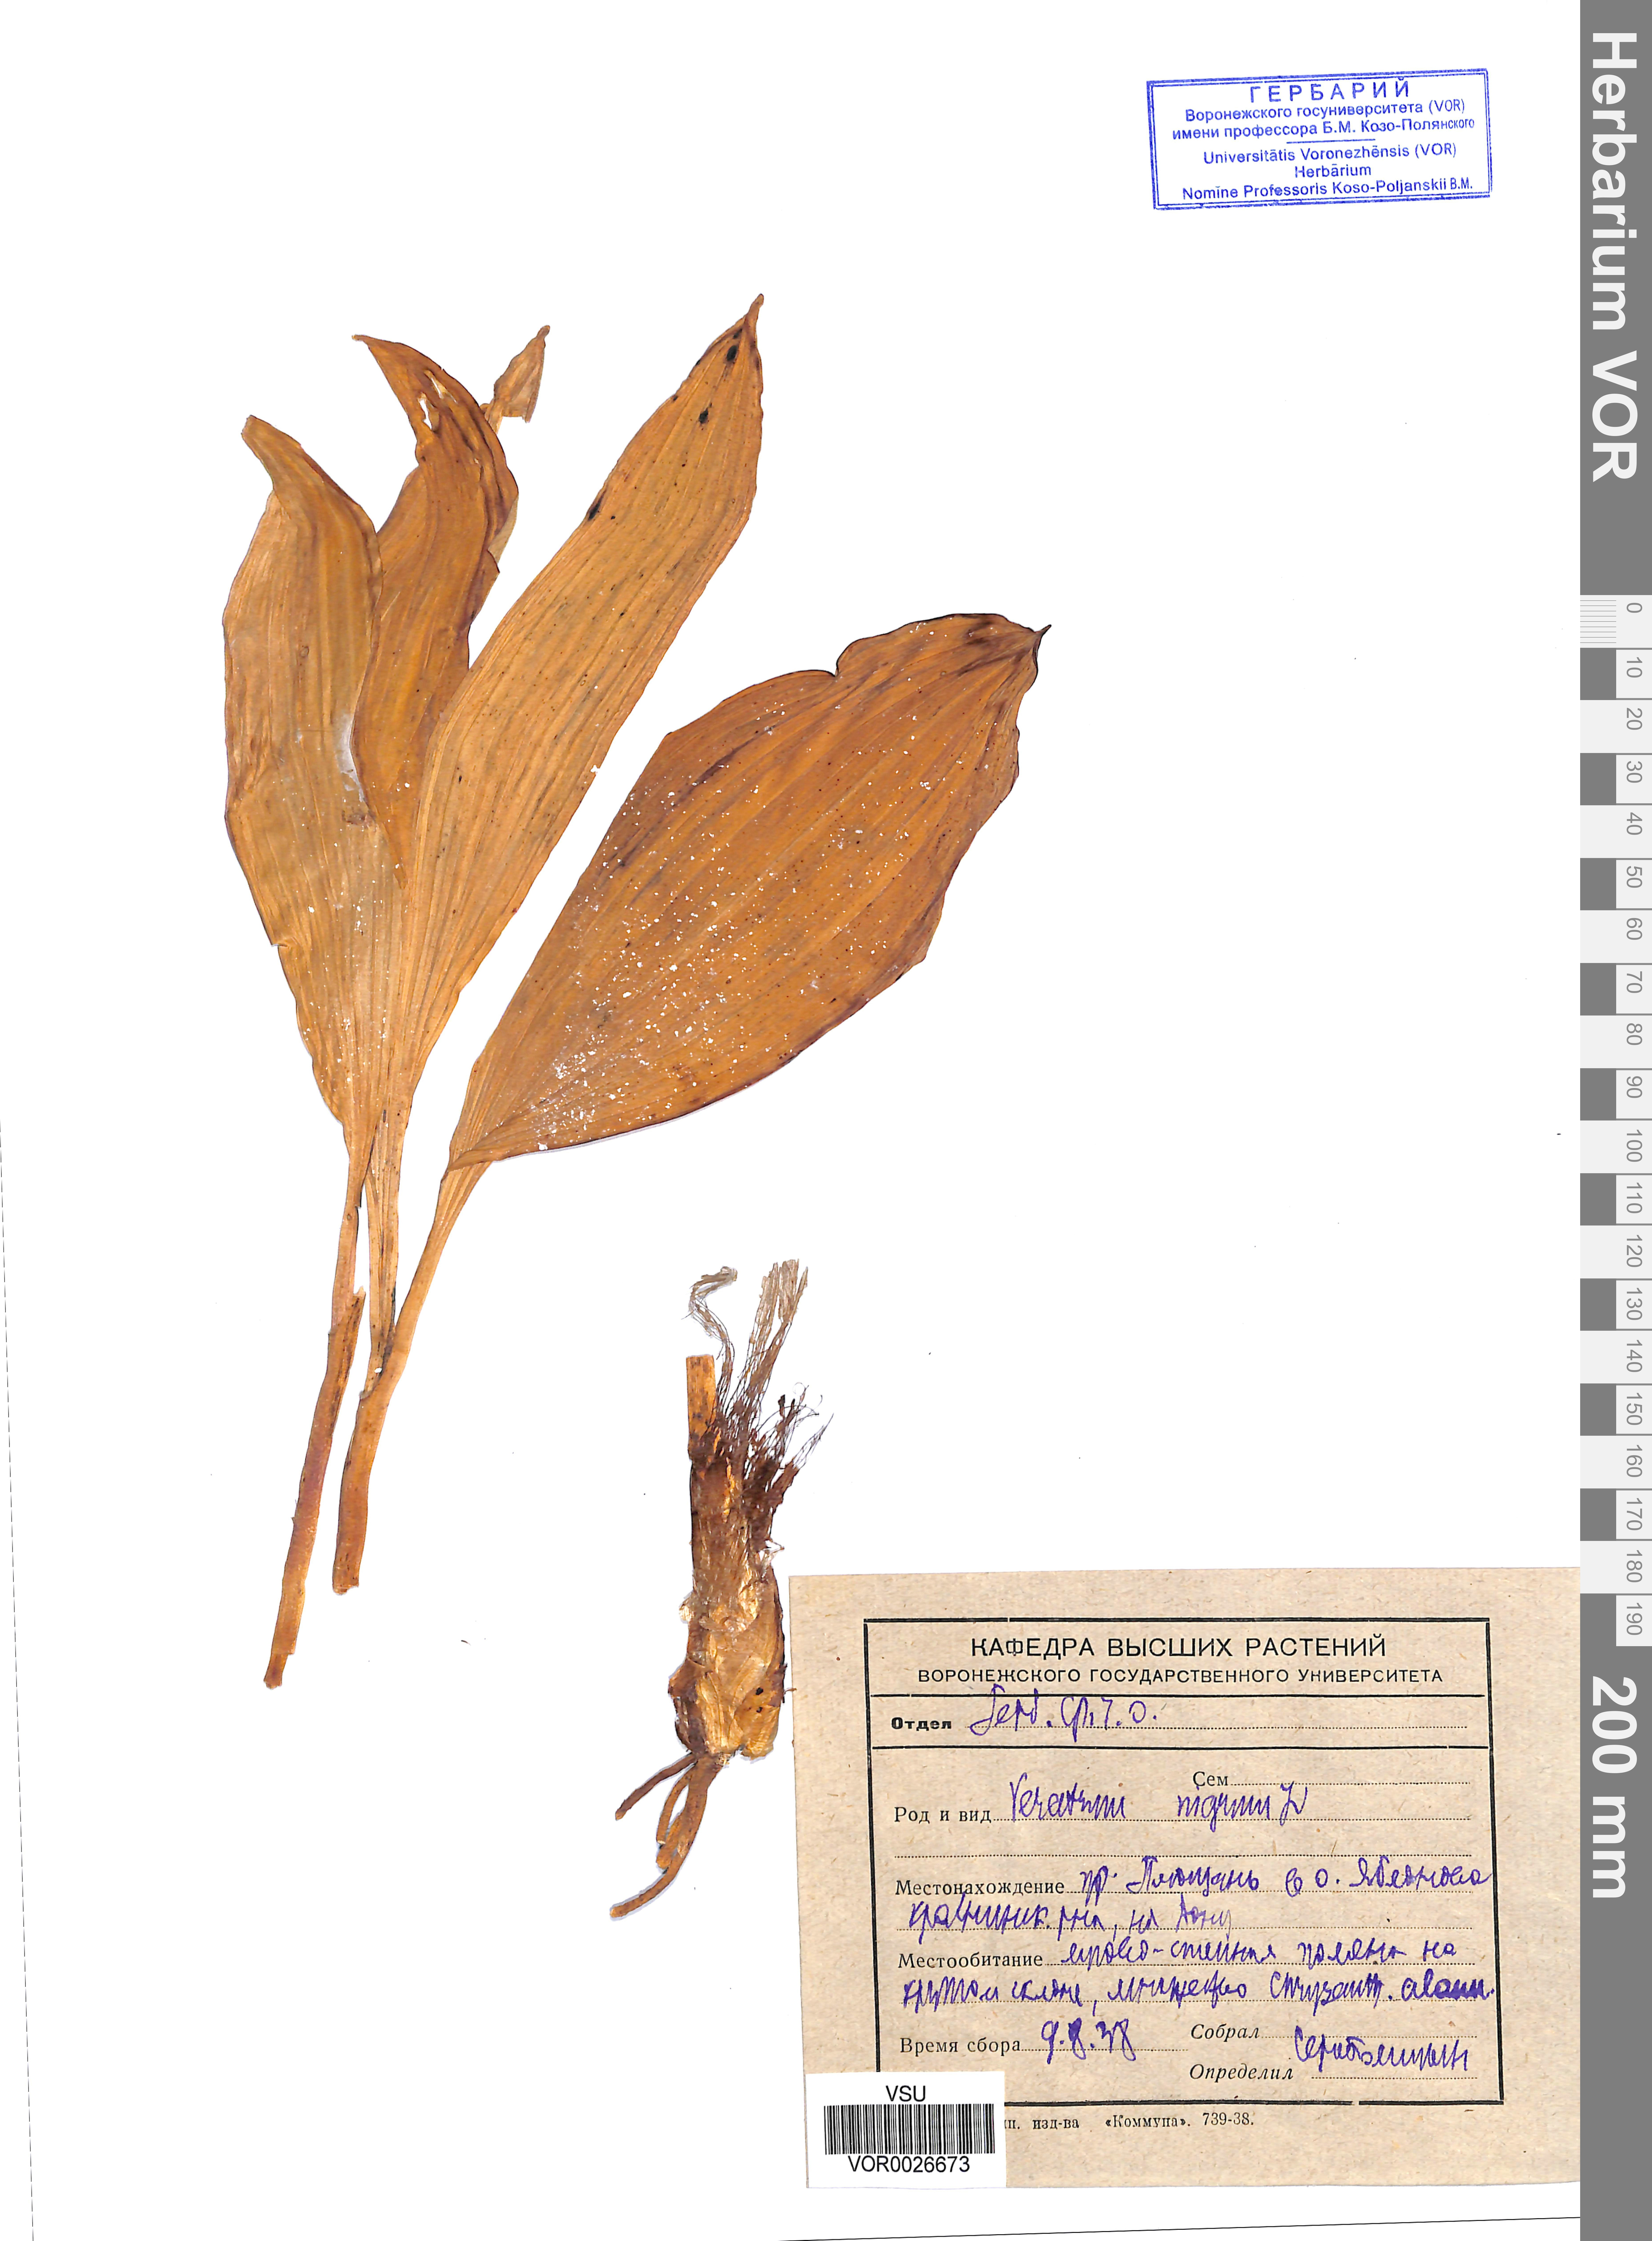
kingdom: Plantae
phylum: Tracheophyta
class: Liliopsida
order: Liliales
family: Melanthiaceae
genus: Veratrum
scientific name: Veratrum nigrum
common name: Black veratrum
